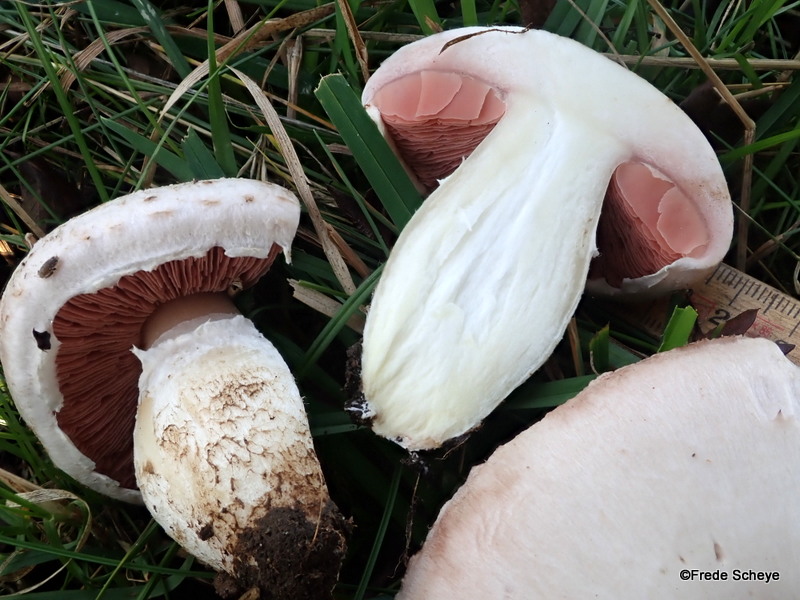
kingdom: Fungi
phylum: Basidiomycota
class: Agaricomycetes
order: Agaricales
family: Agaricaceae
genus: Agaricus
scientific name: Agaricus campestris
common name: mark-champignon
